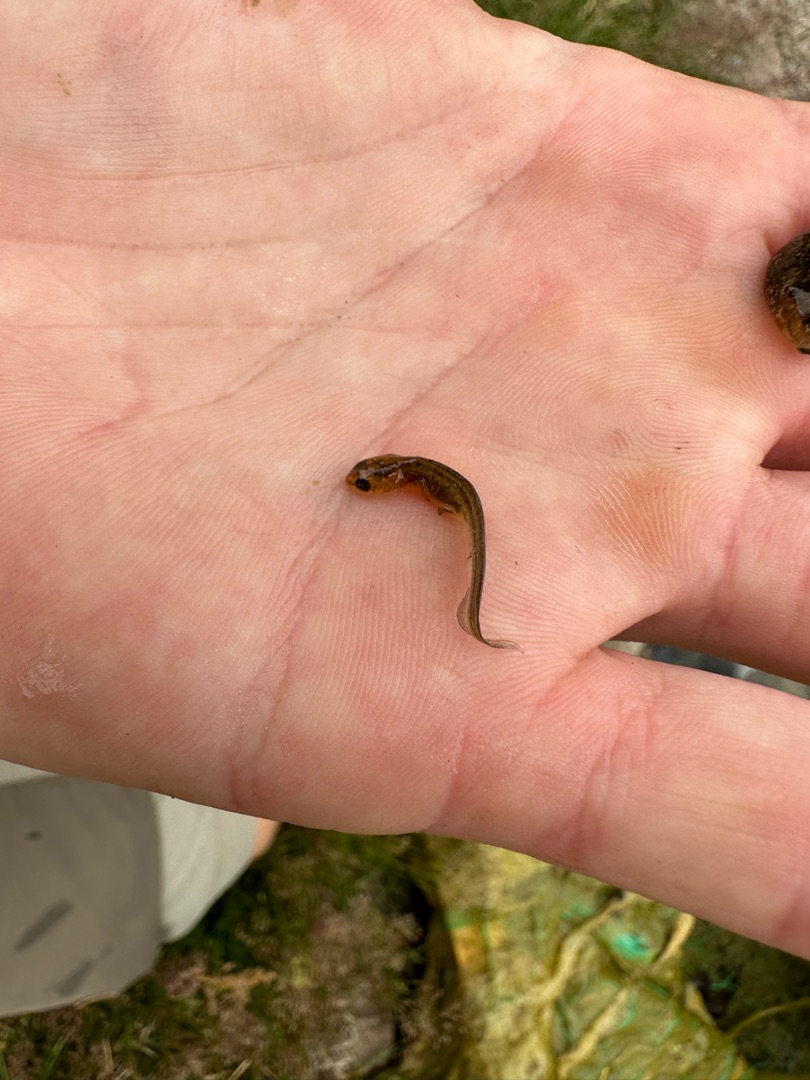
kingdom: Animalia
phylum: Chordata
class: Amphibia
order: Caudata
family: Salamandridae
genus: Lissotriton
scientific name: Lissotriton vulgaris
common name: Lille vandsalamander
